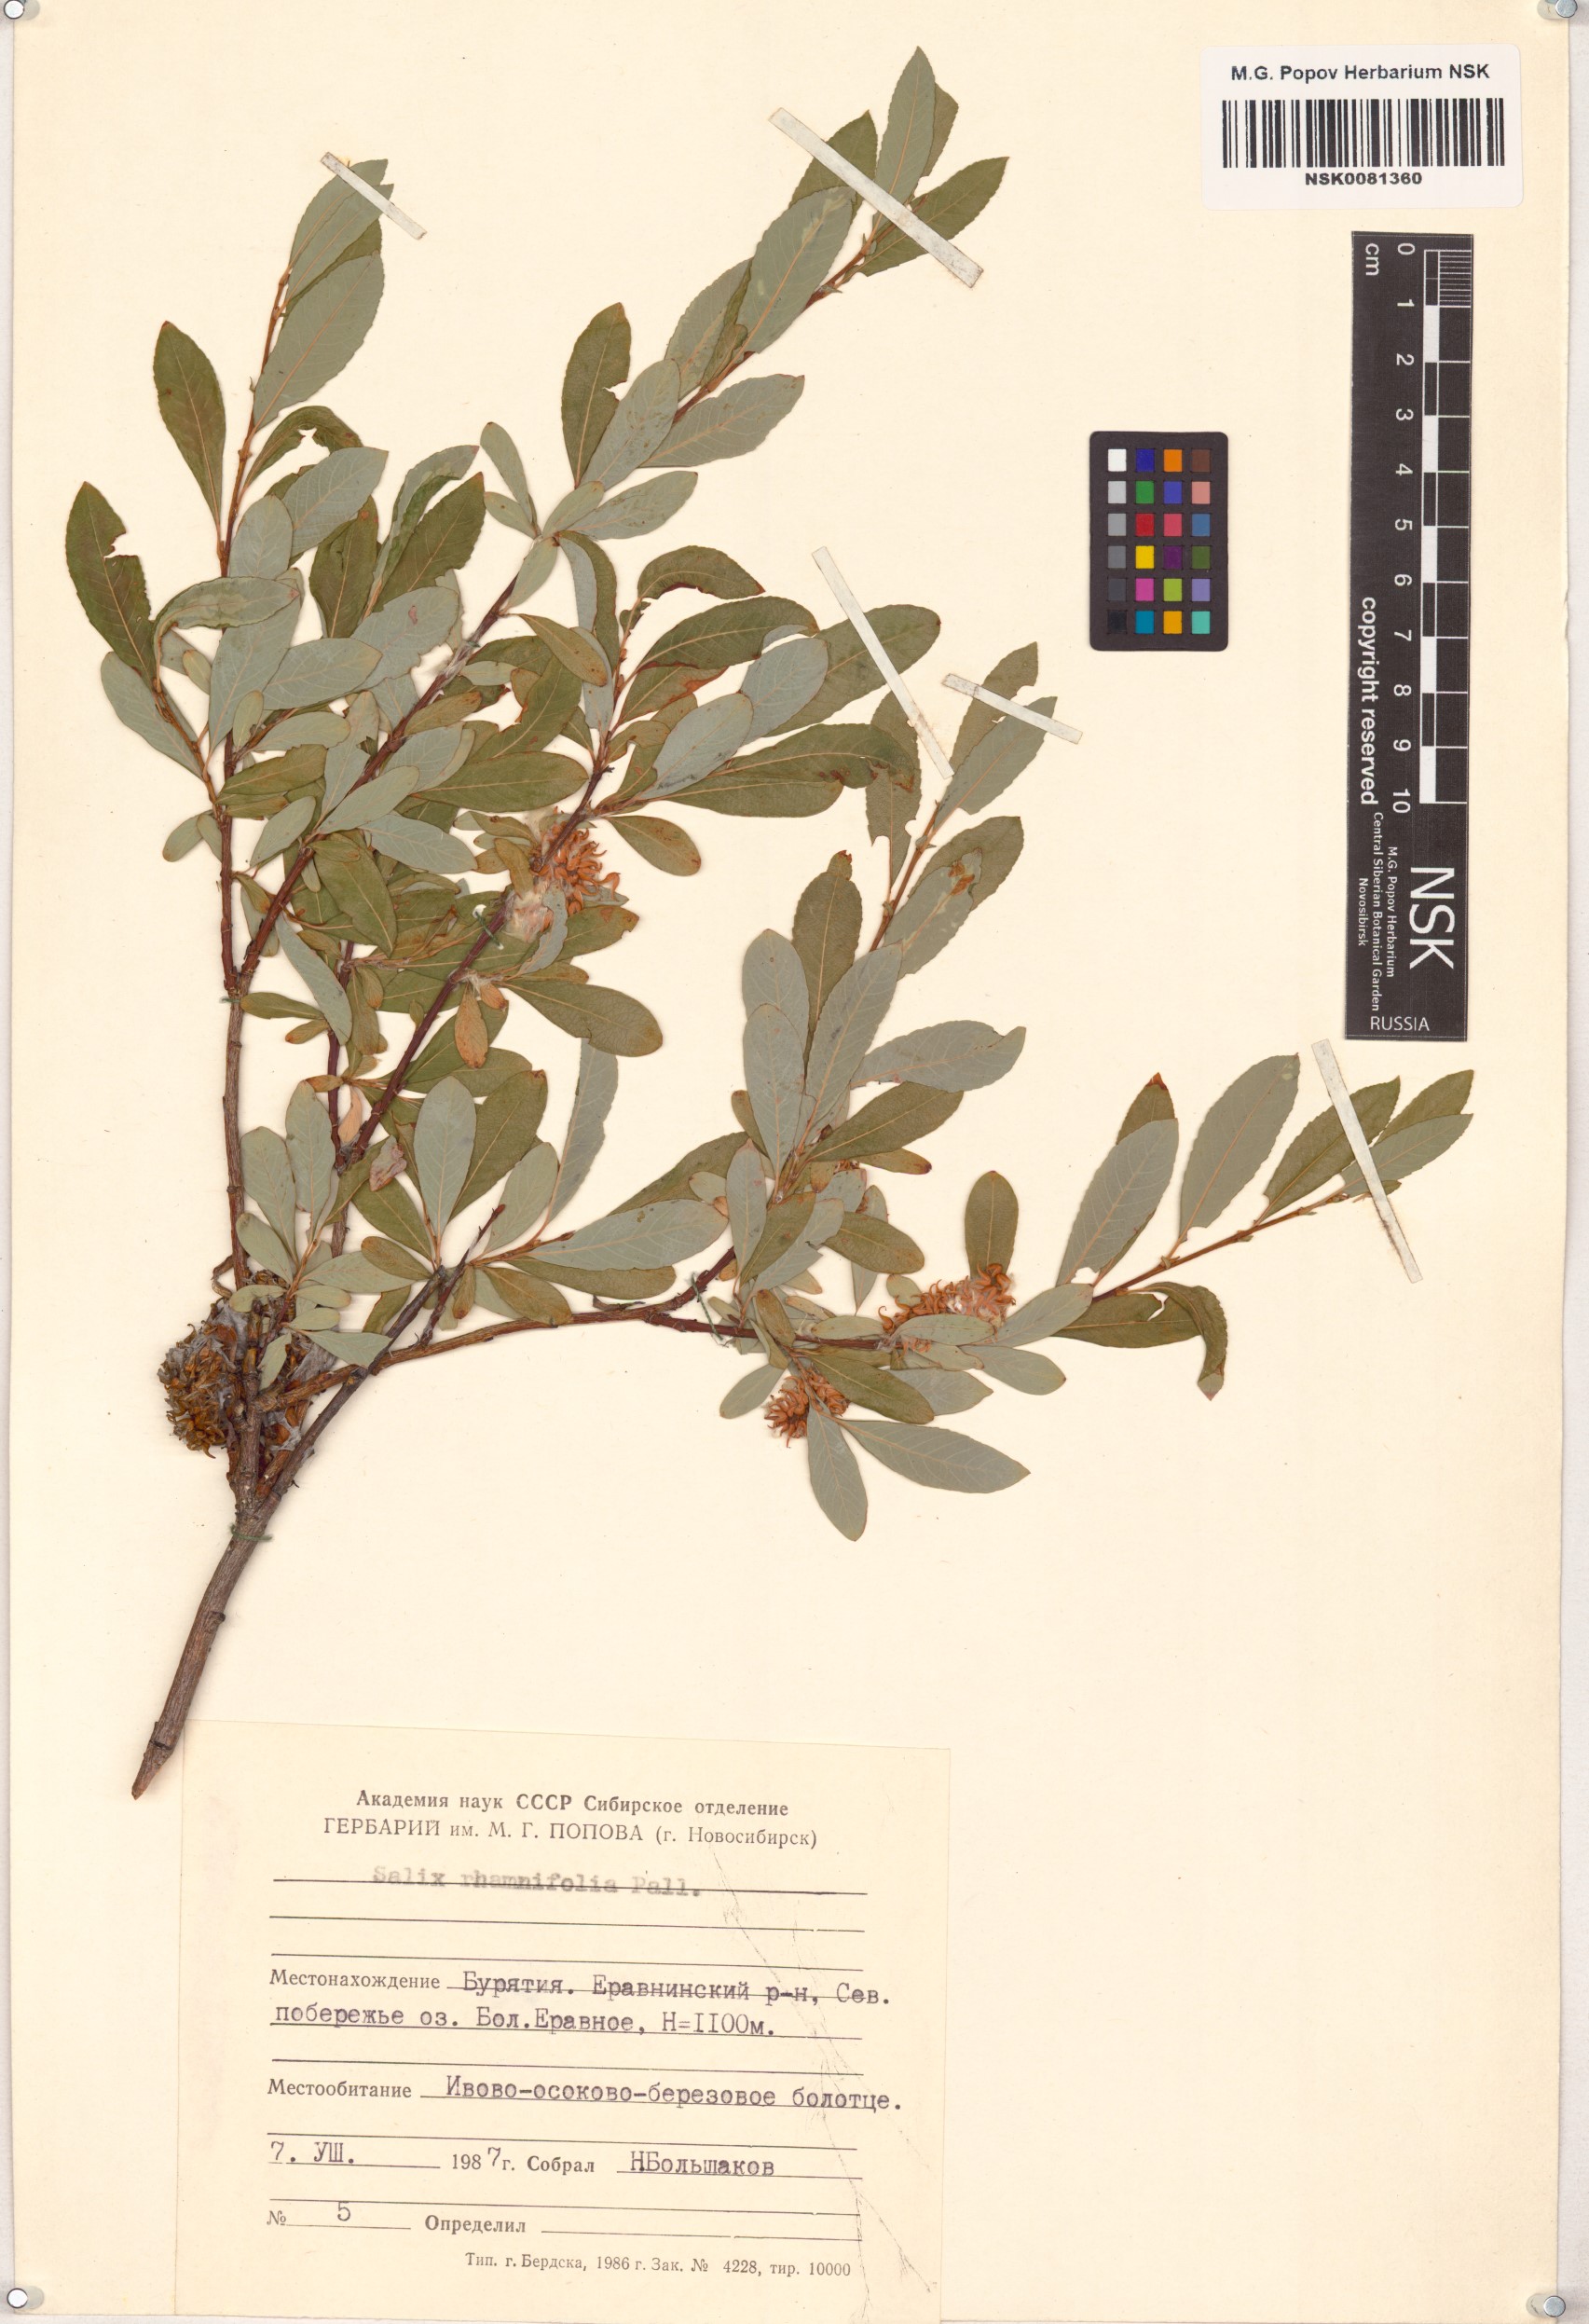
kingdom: Plantae
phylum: Tracheophyta
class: Magnoliopsida
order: Malpighiales
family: Salicaceae
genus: Salix
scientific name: Salix rhamnifolia
